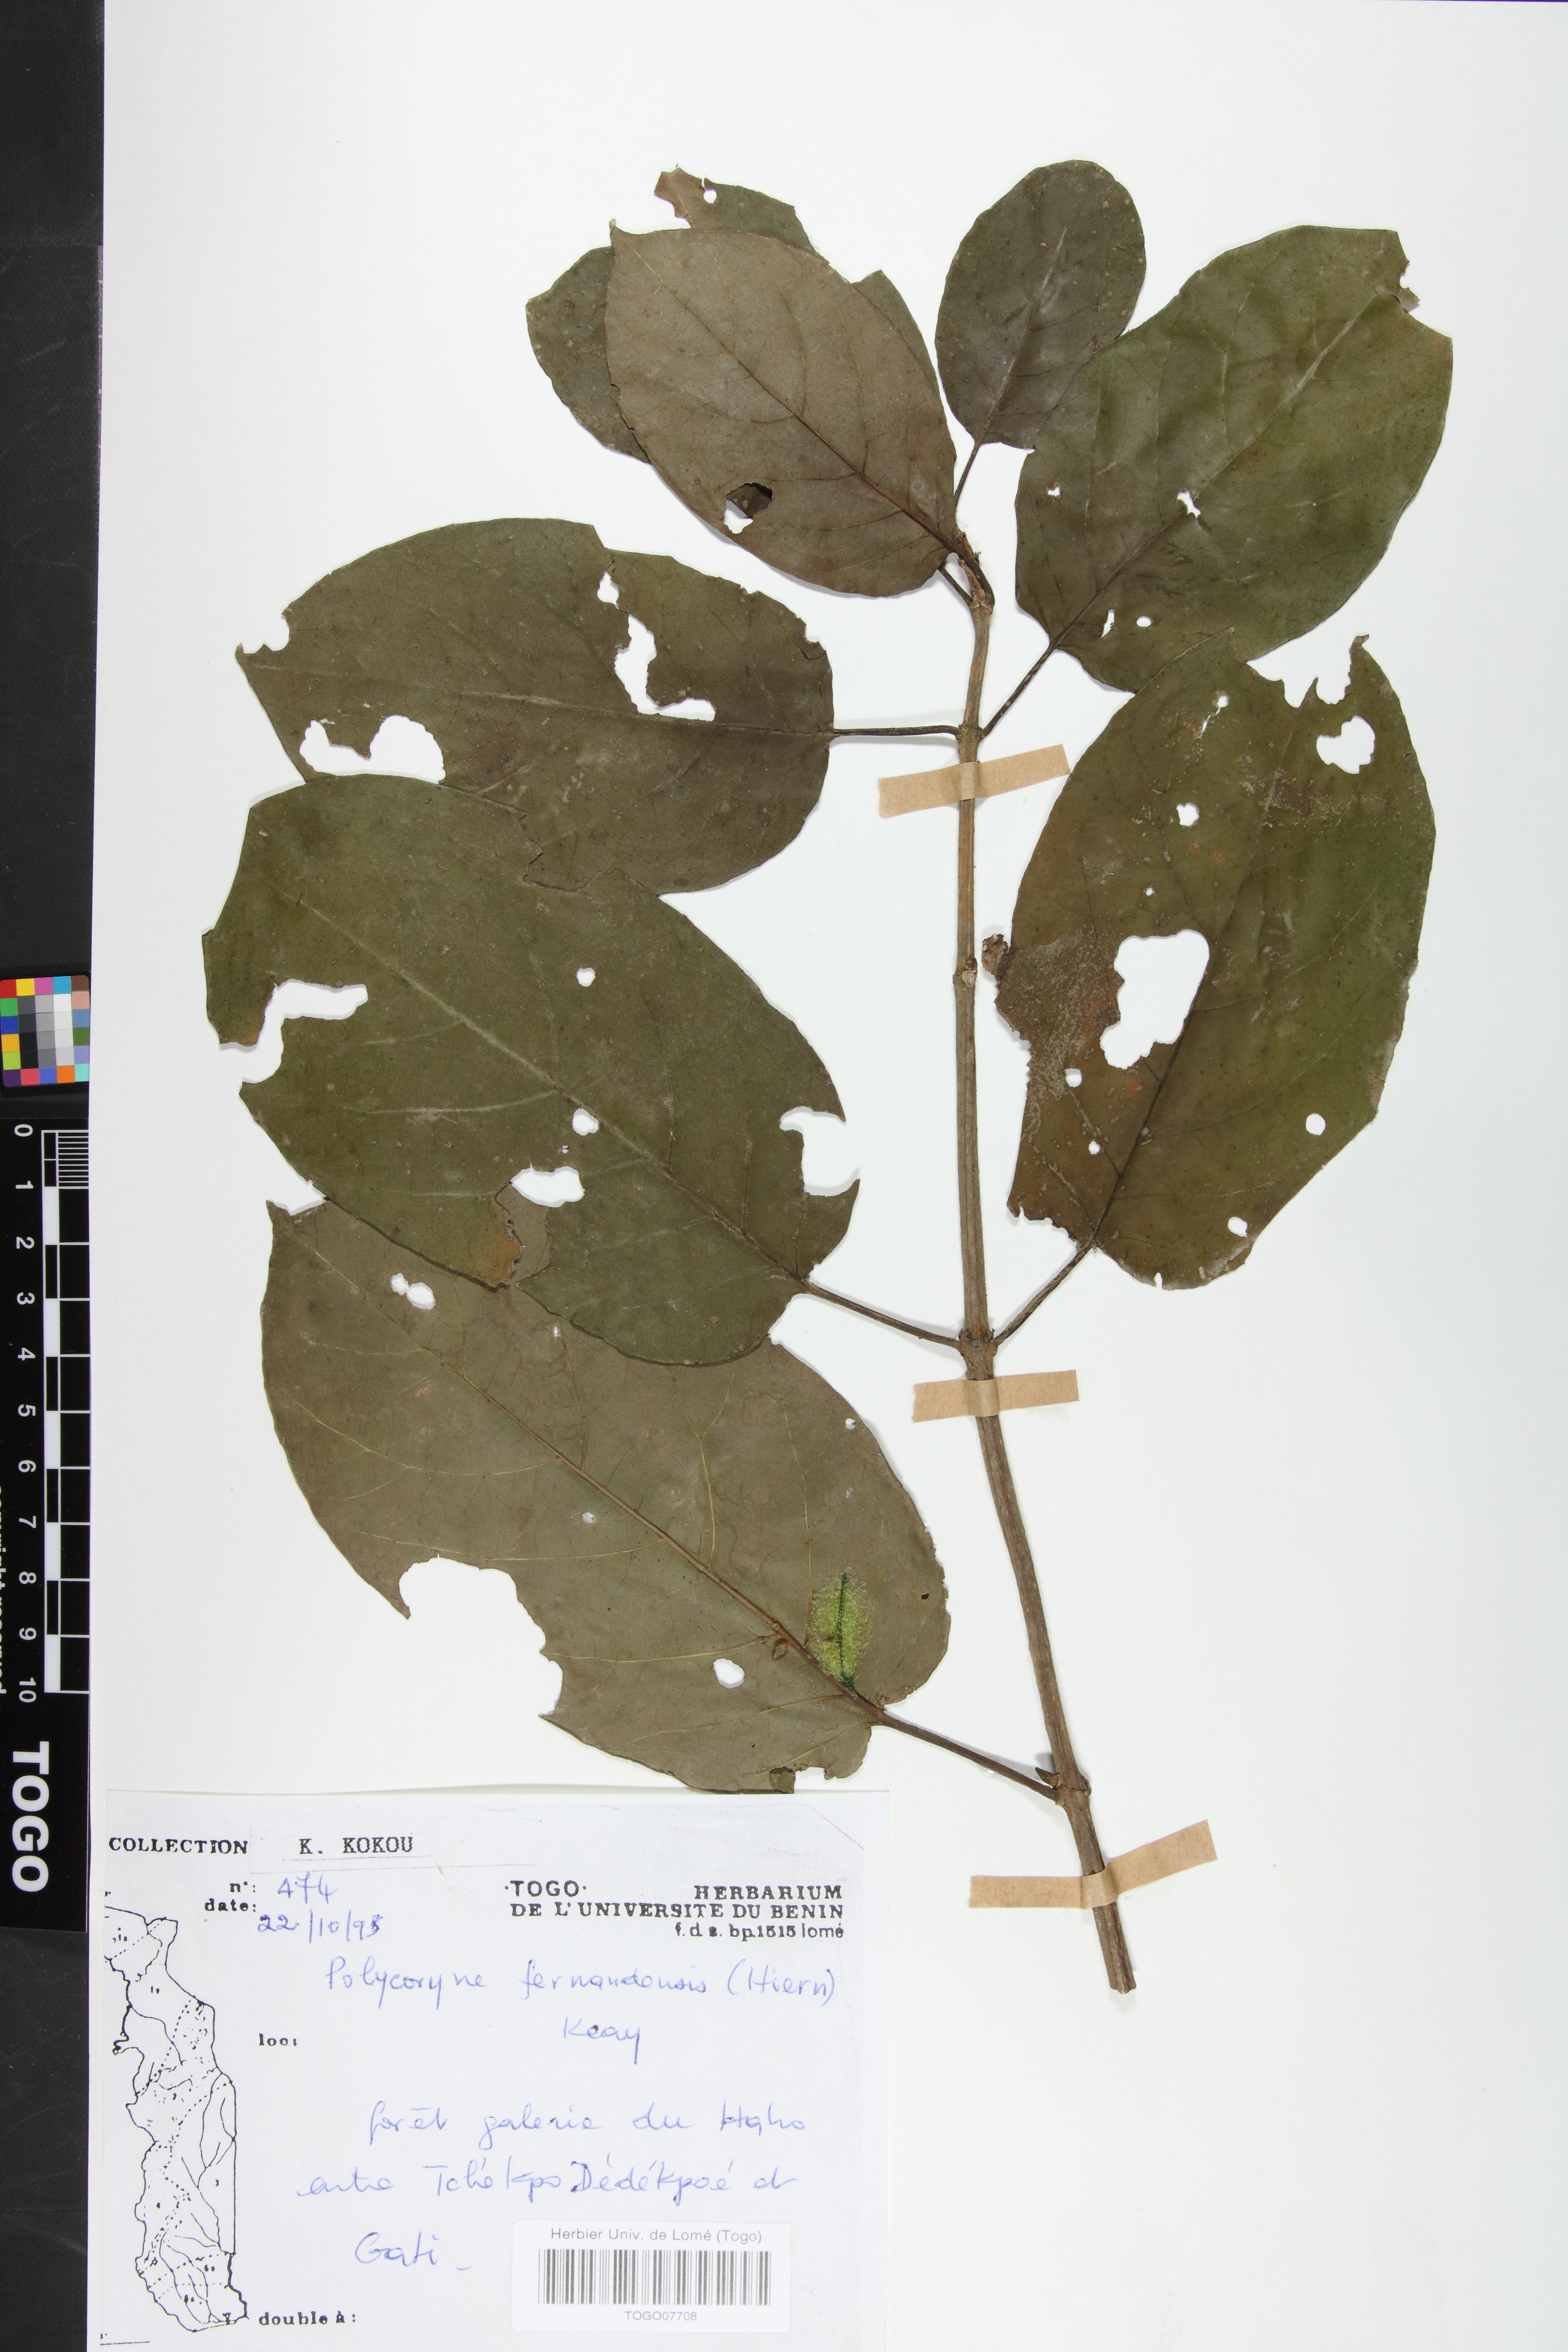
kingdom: Plantae
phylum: Tracheophyta
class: Magnoliopsida
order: Gentianales
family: Rubiaceae
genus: Pleiocoryne
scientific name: Pleiocoryne fernandensis
